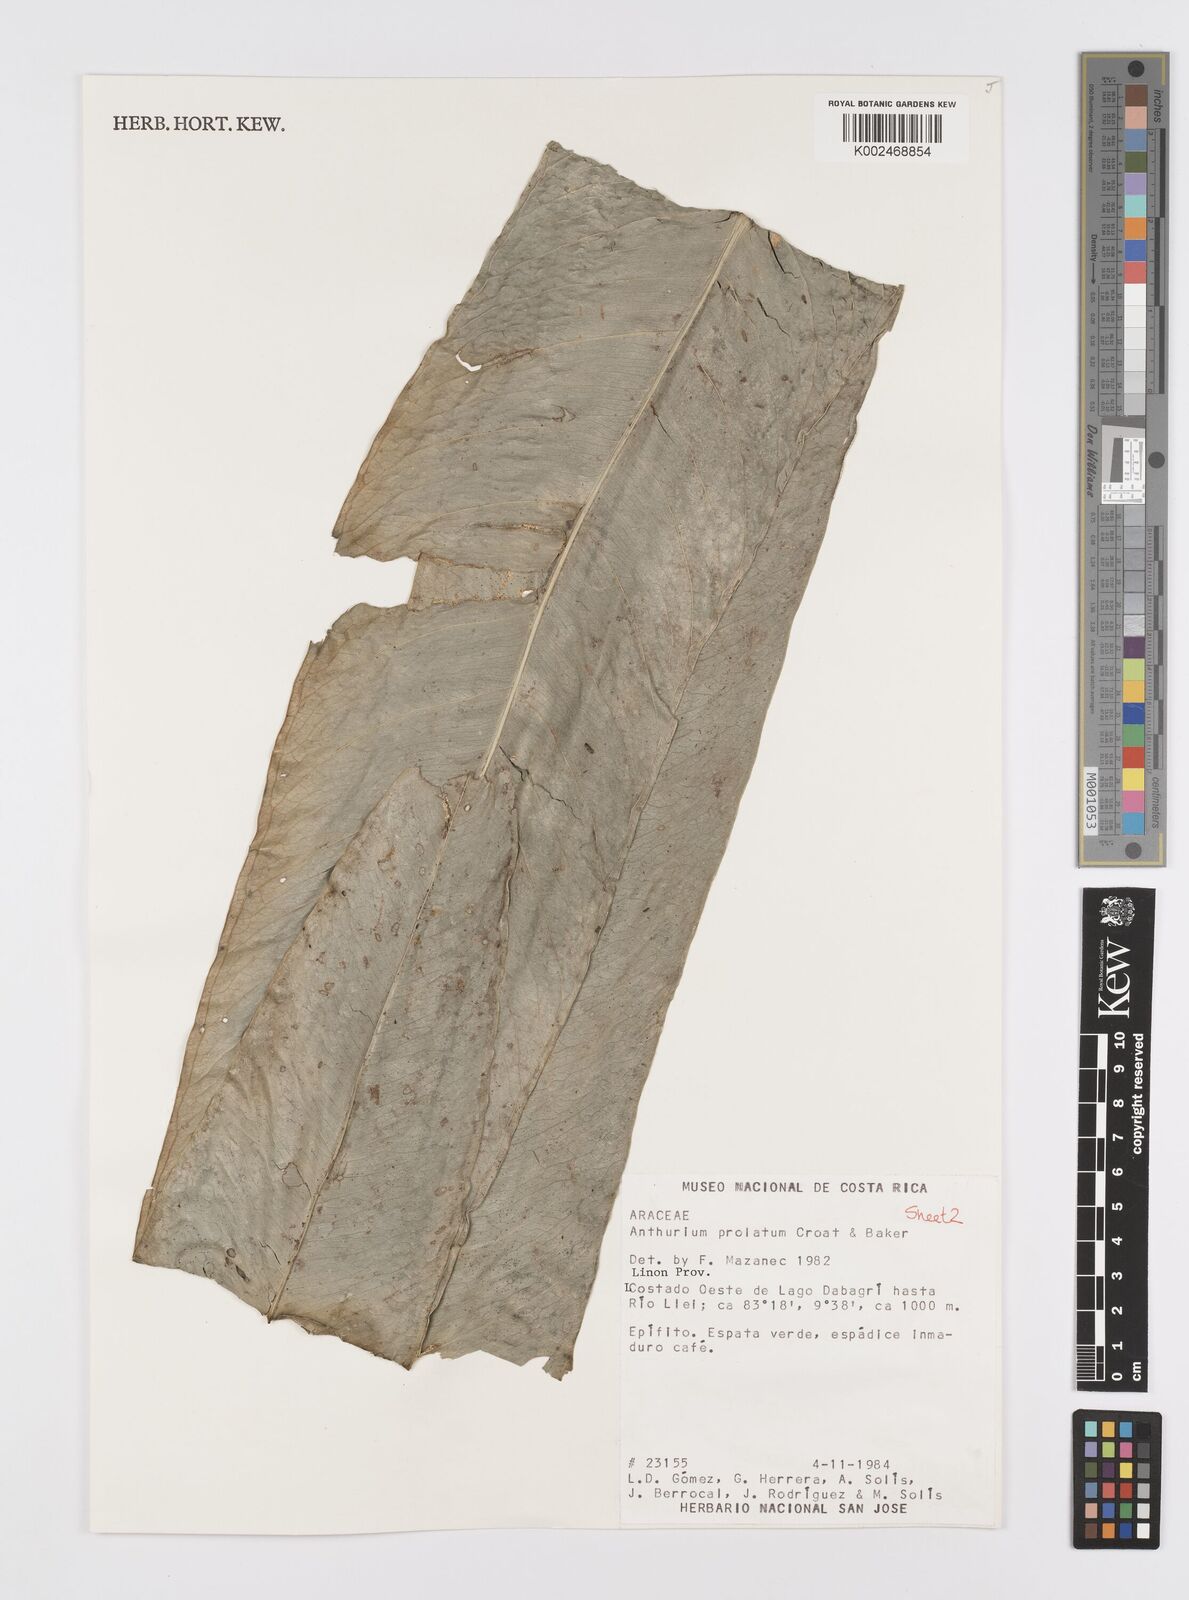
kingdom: Plantae
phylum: Tracheophyta
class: Liliopsida
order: Alismatales
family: Araceae
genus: Anthurium
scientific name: Anthurium prolatum
